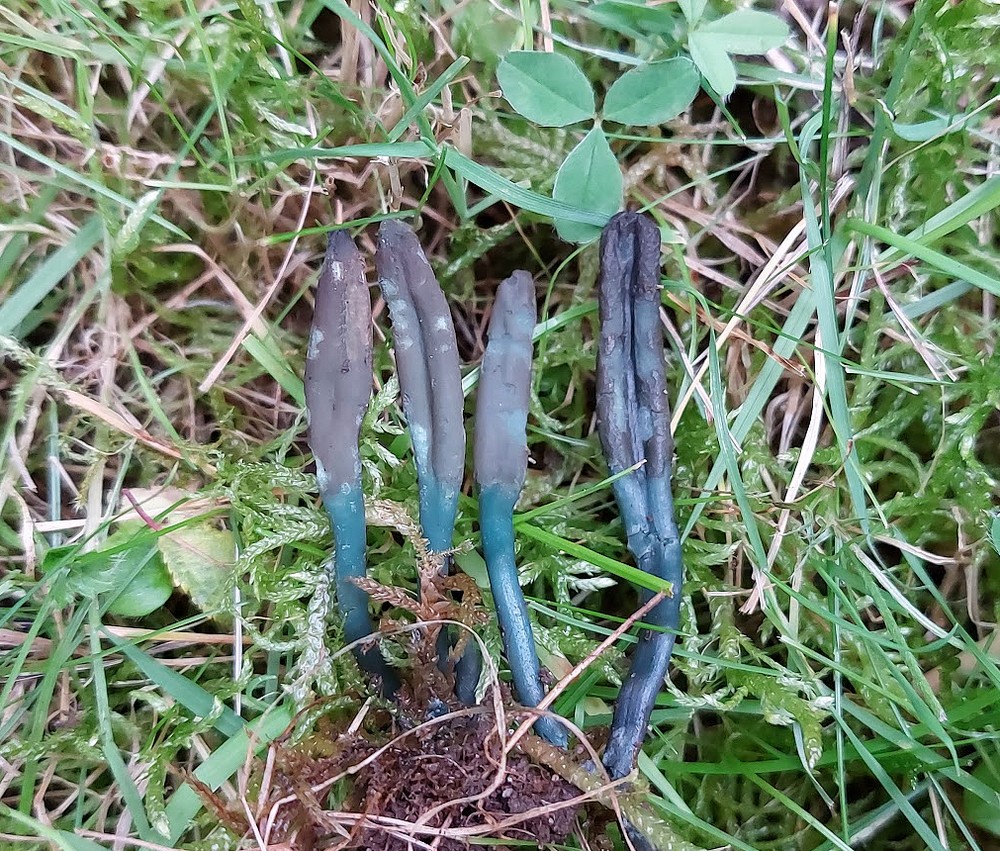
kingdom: Fungi
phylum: Ascomycota
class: Leotiomycetes
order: Helotiales
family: Lachnaceae
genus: Microglossum
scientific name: Microglossum
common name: farvetunge
